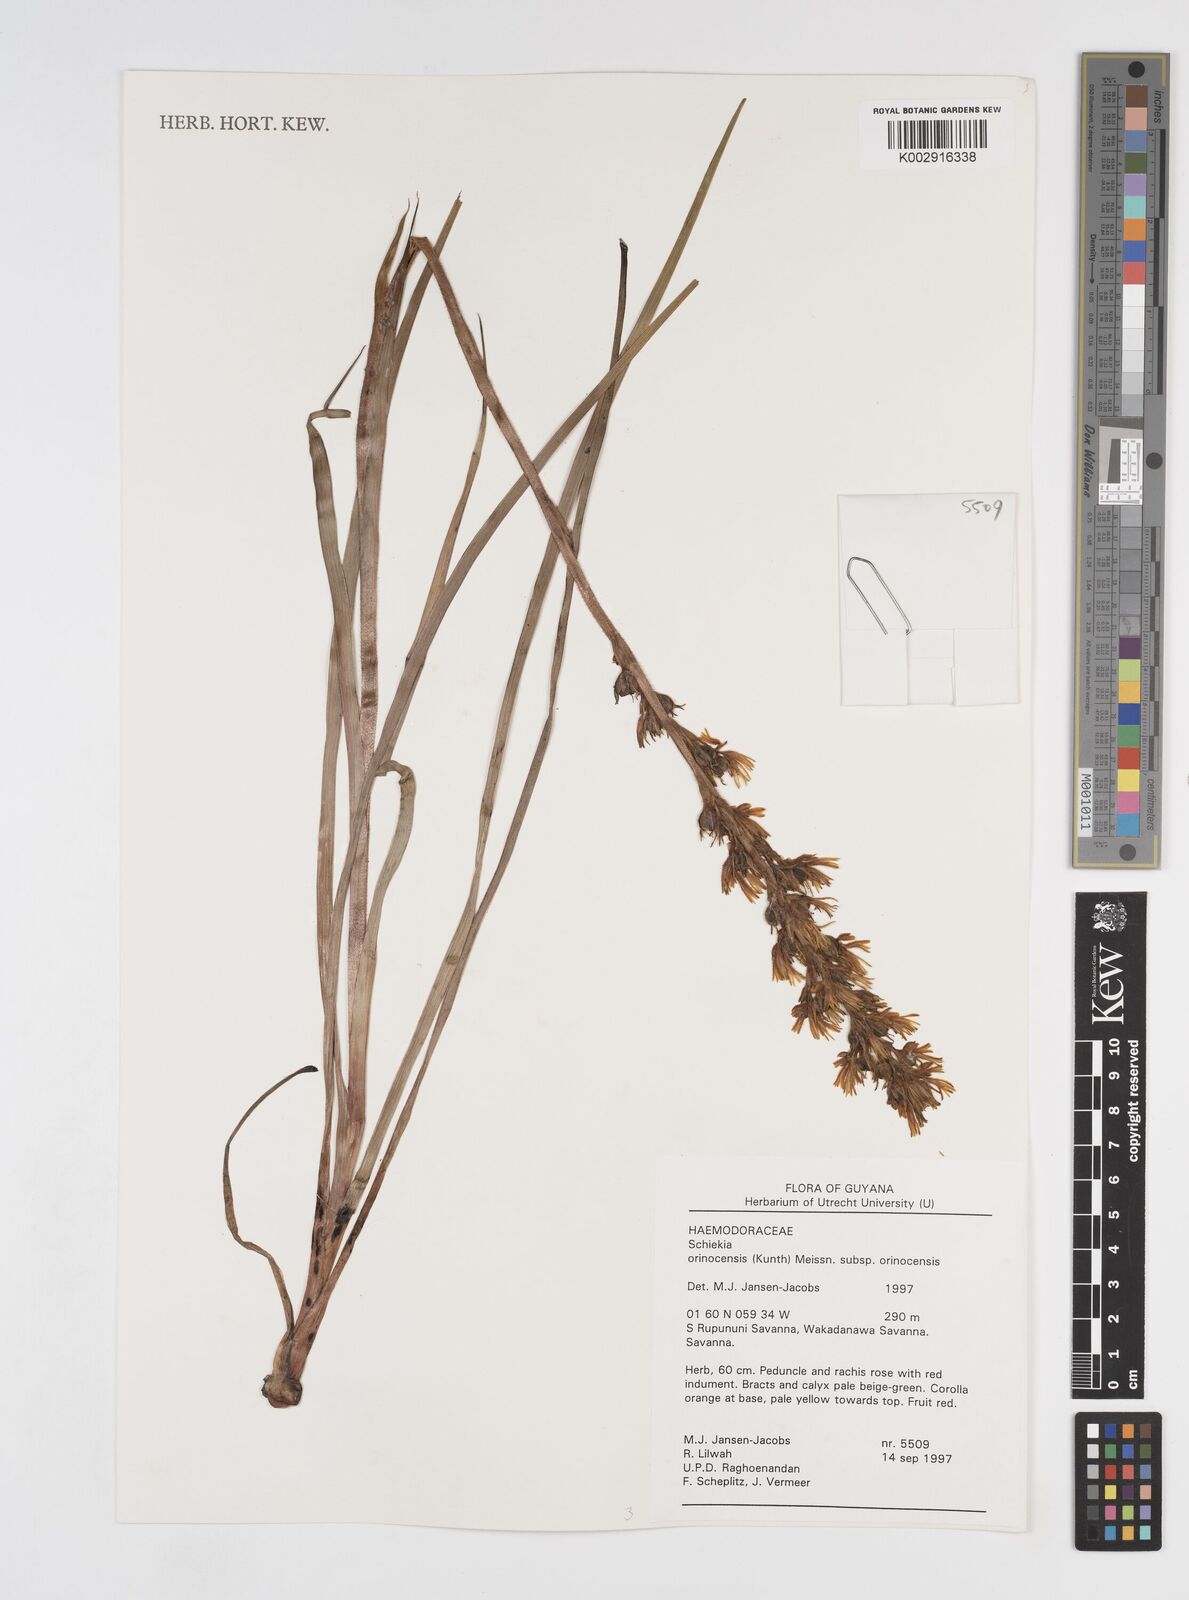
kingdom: Plantae
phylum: Tracheophyta
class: Liliopsida
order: Commelinales
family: Haemodoraceae
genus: Schiekia
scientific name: Schiekia orinocensis
